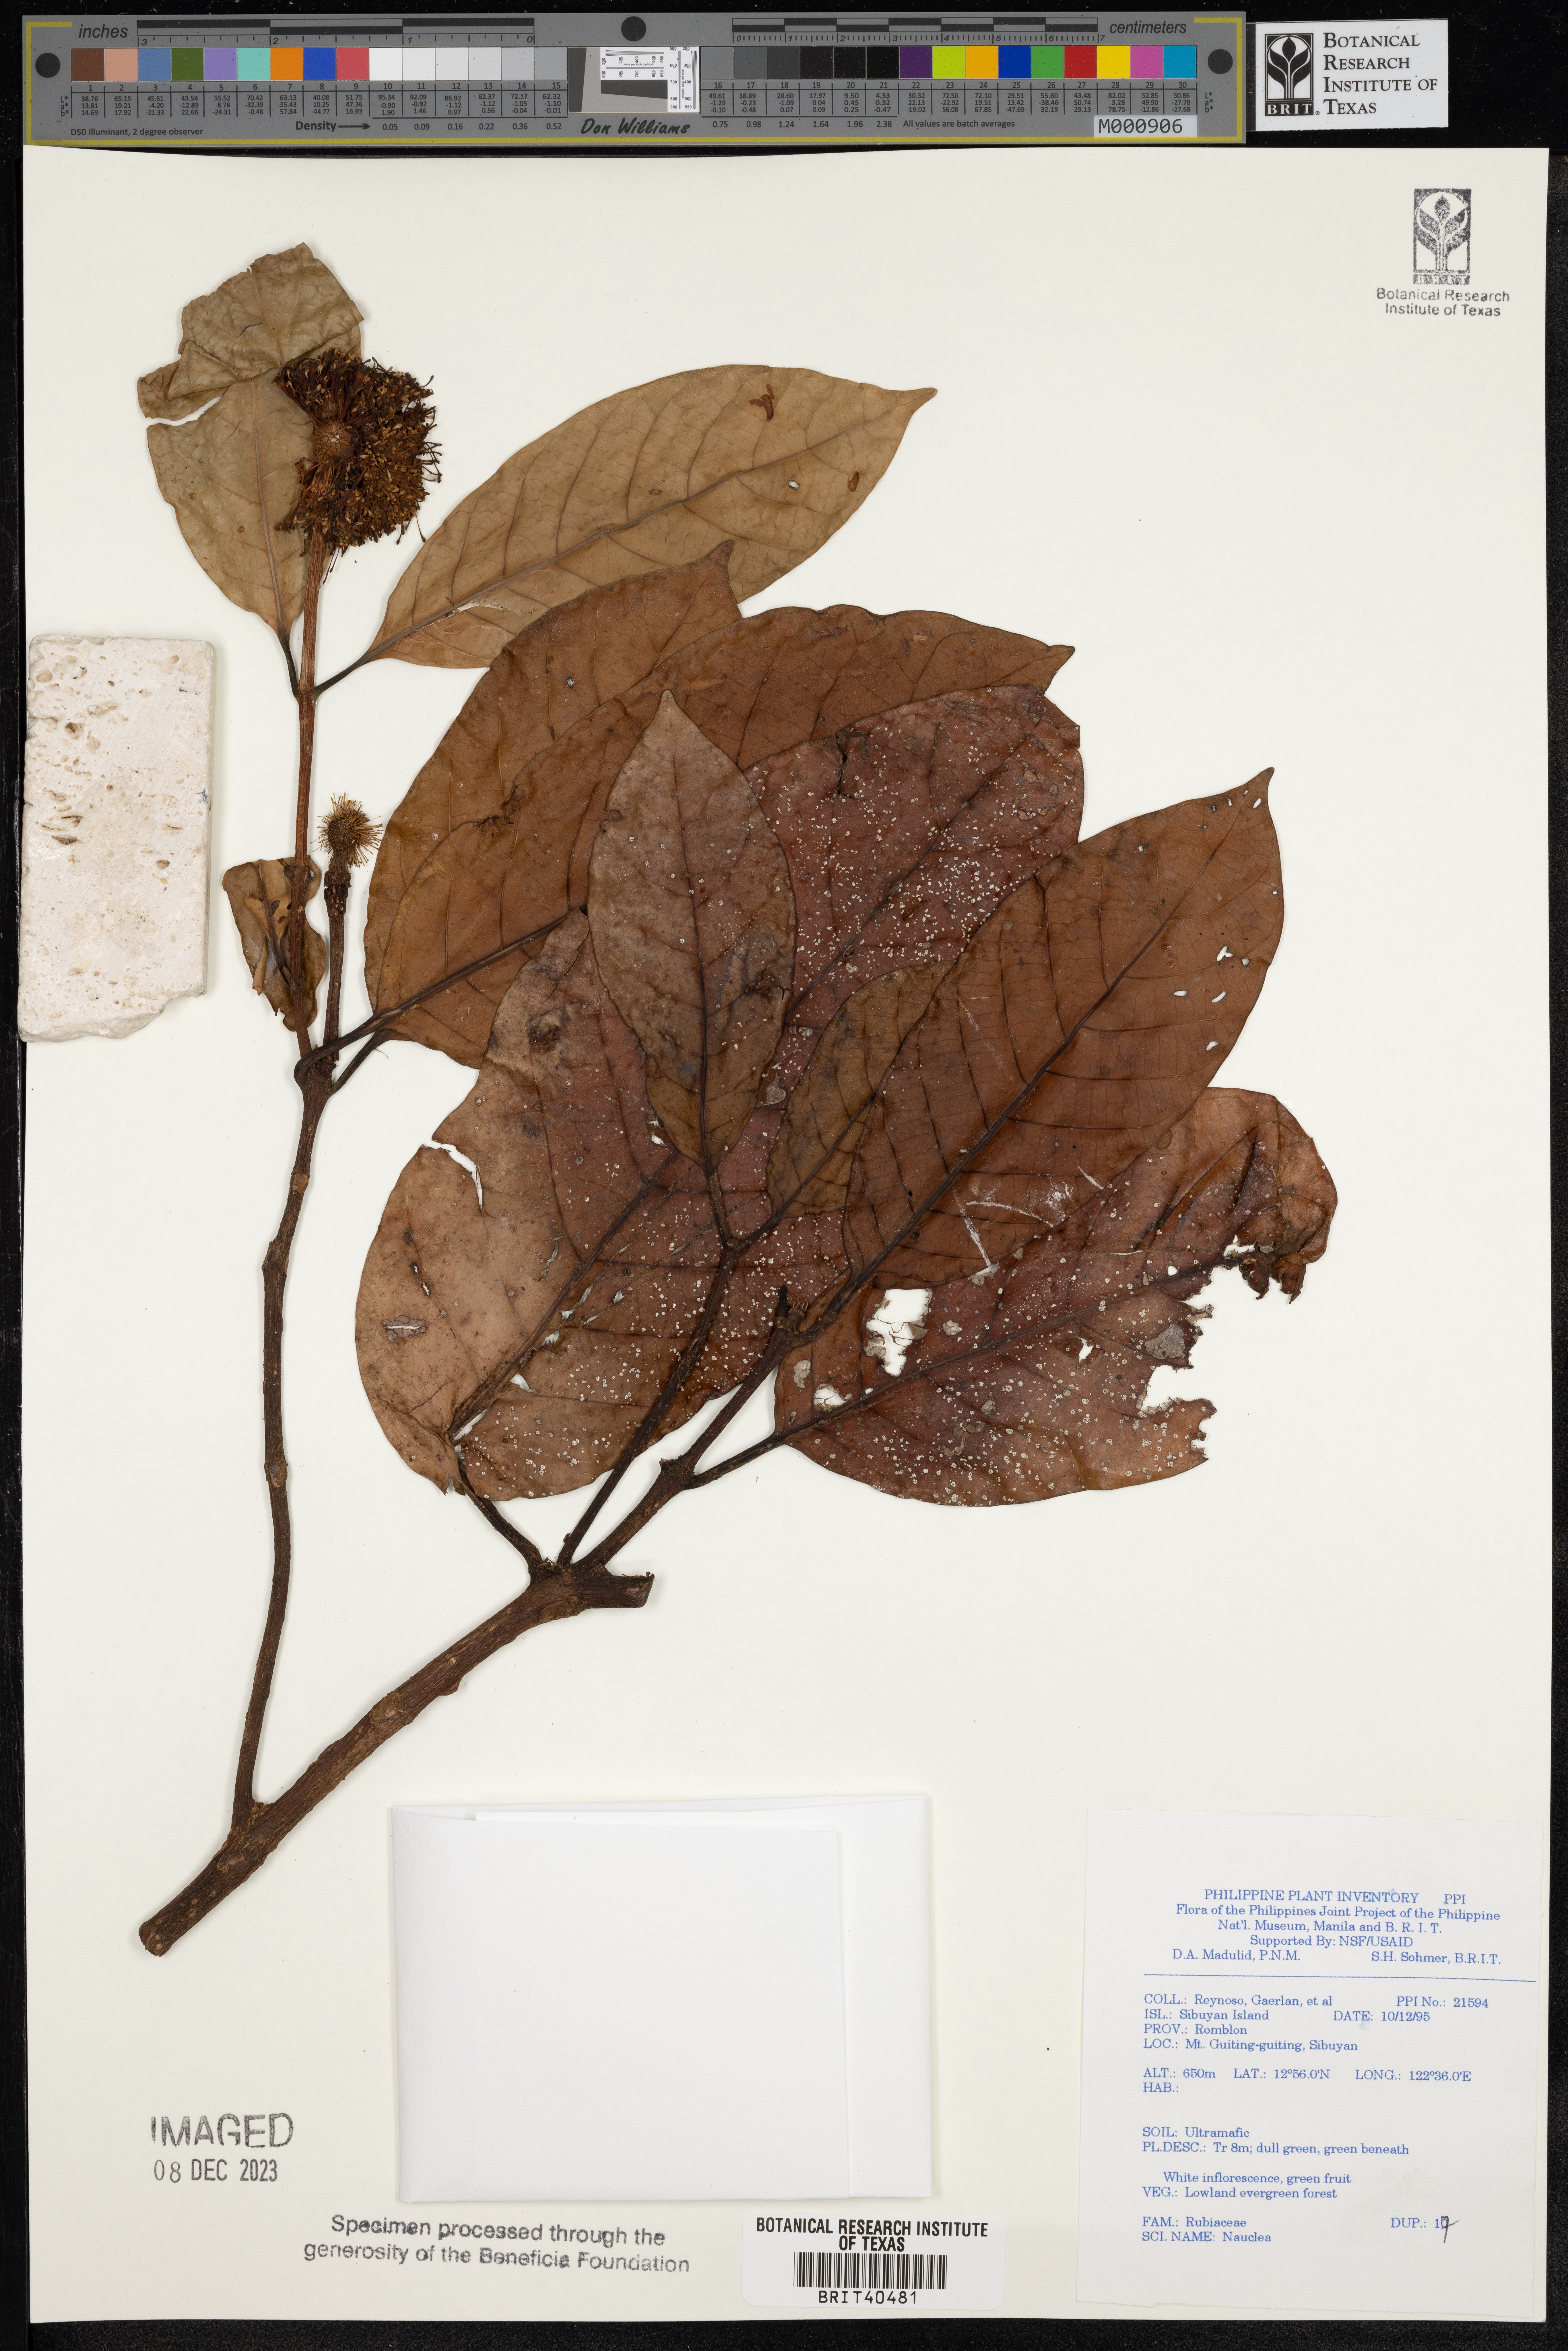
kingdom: Plantae
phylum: Tracheophyta
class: Magnoliopsida
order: Gentianales
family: Rubiaceae
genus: Nauclea
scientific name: Nauclea
